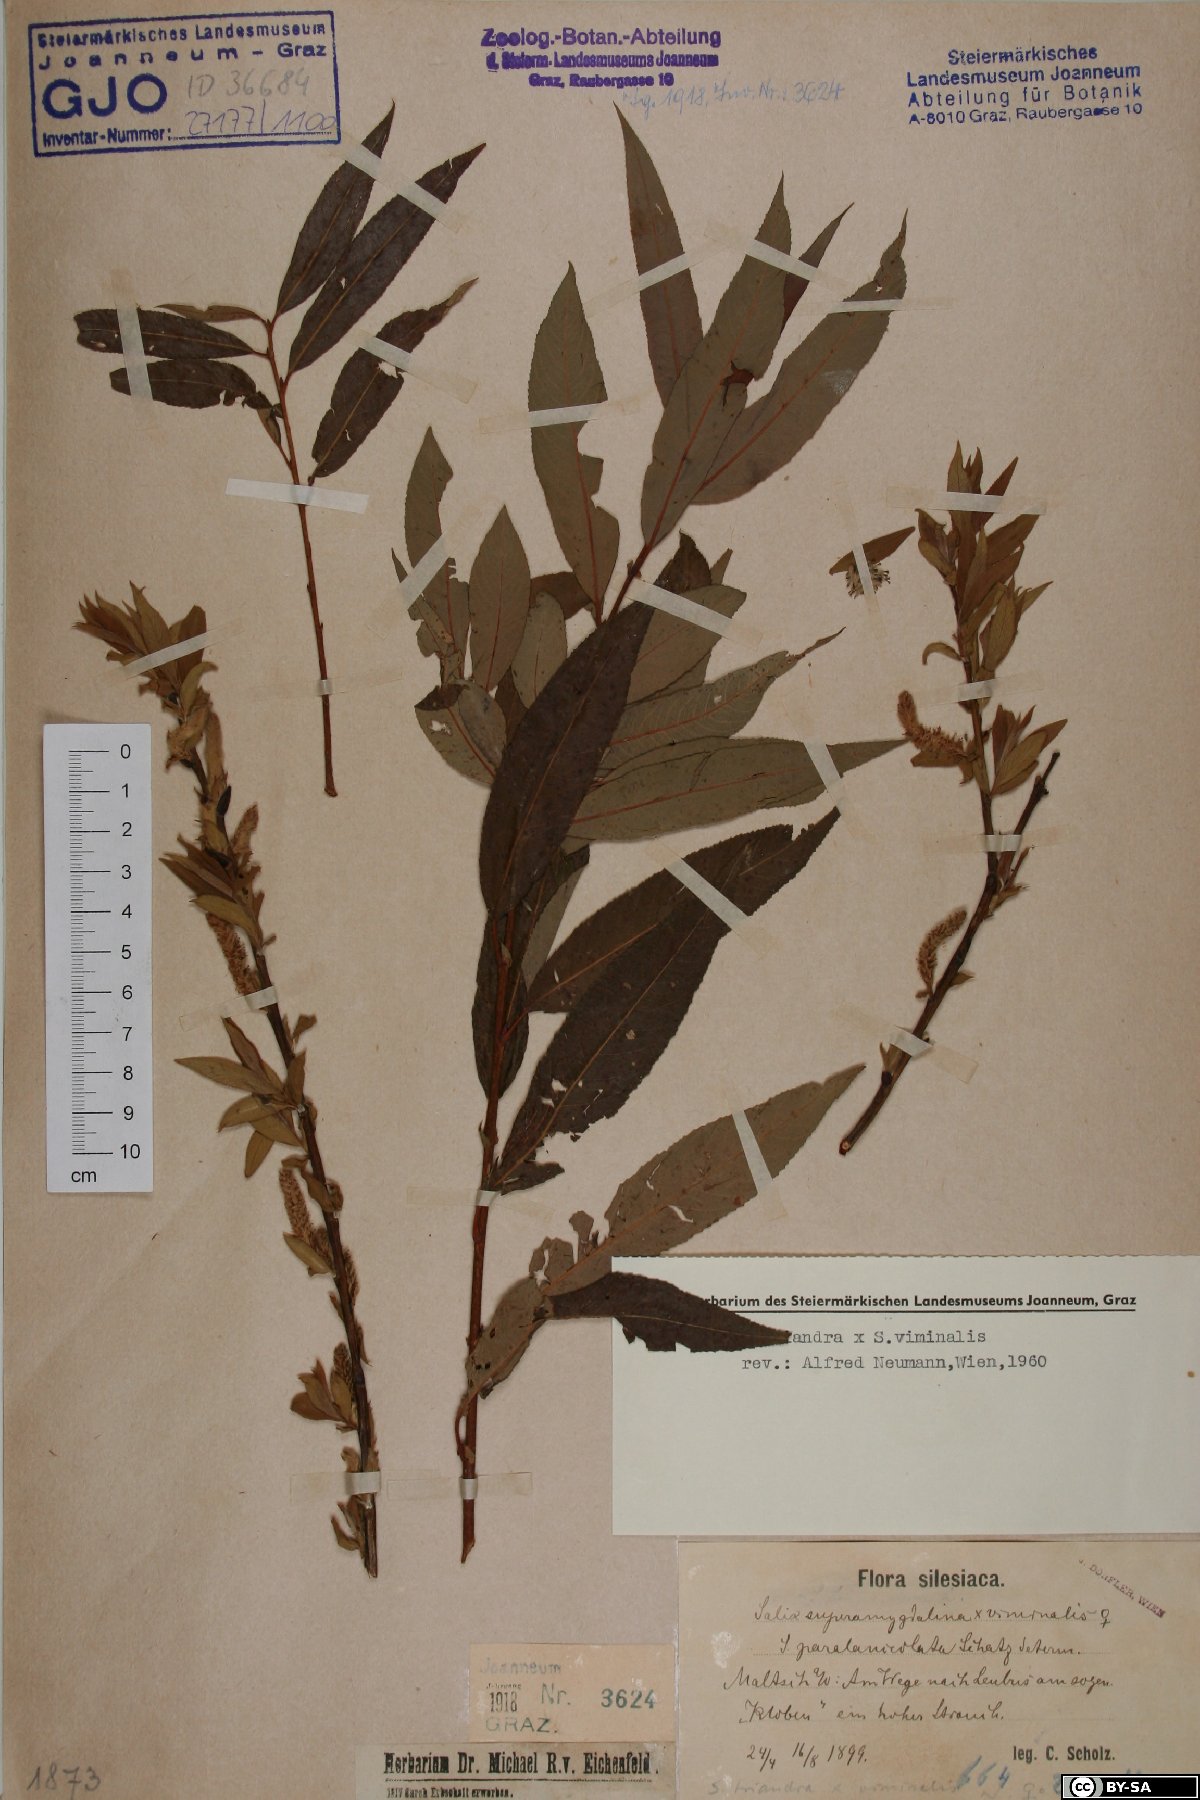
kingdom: Plantae
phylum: Tracheophyta
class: Magnoliopsida
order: Malpighiales
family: Salicaceae
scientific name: Salicaceae
